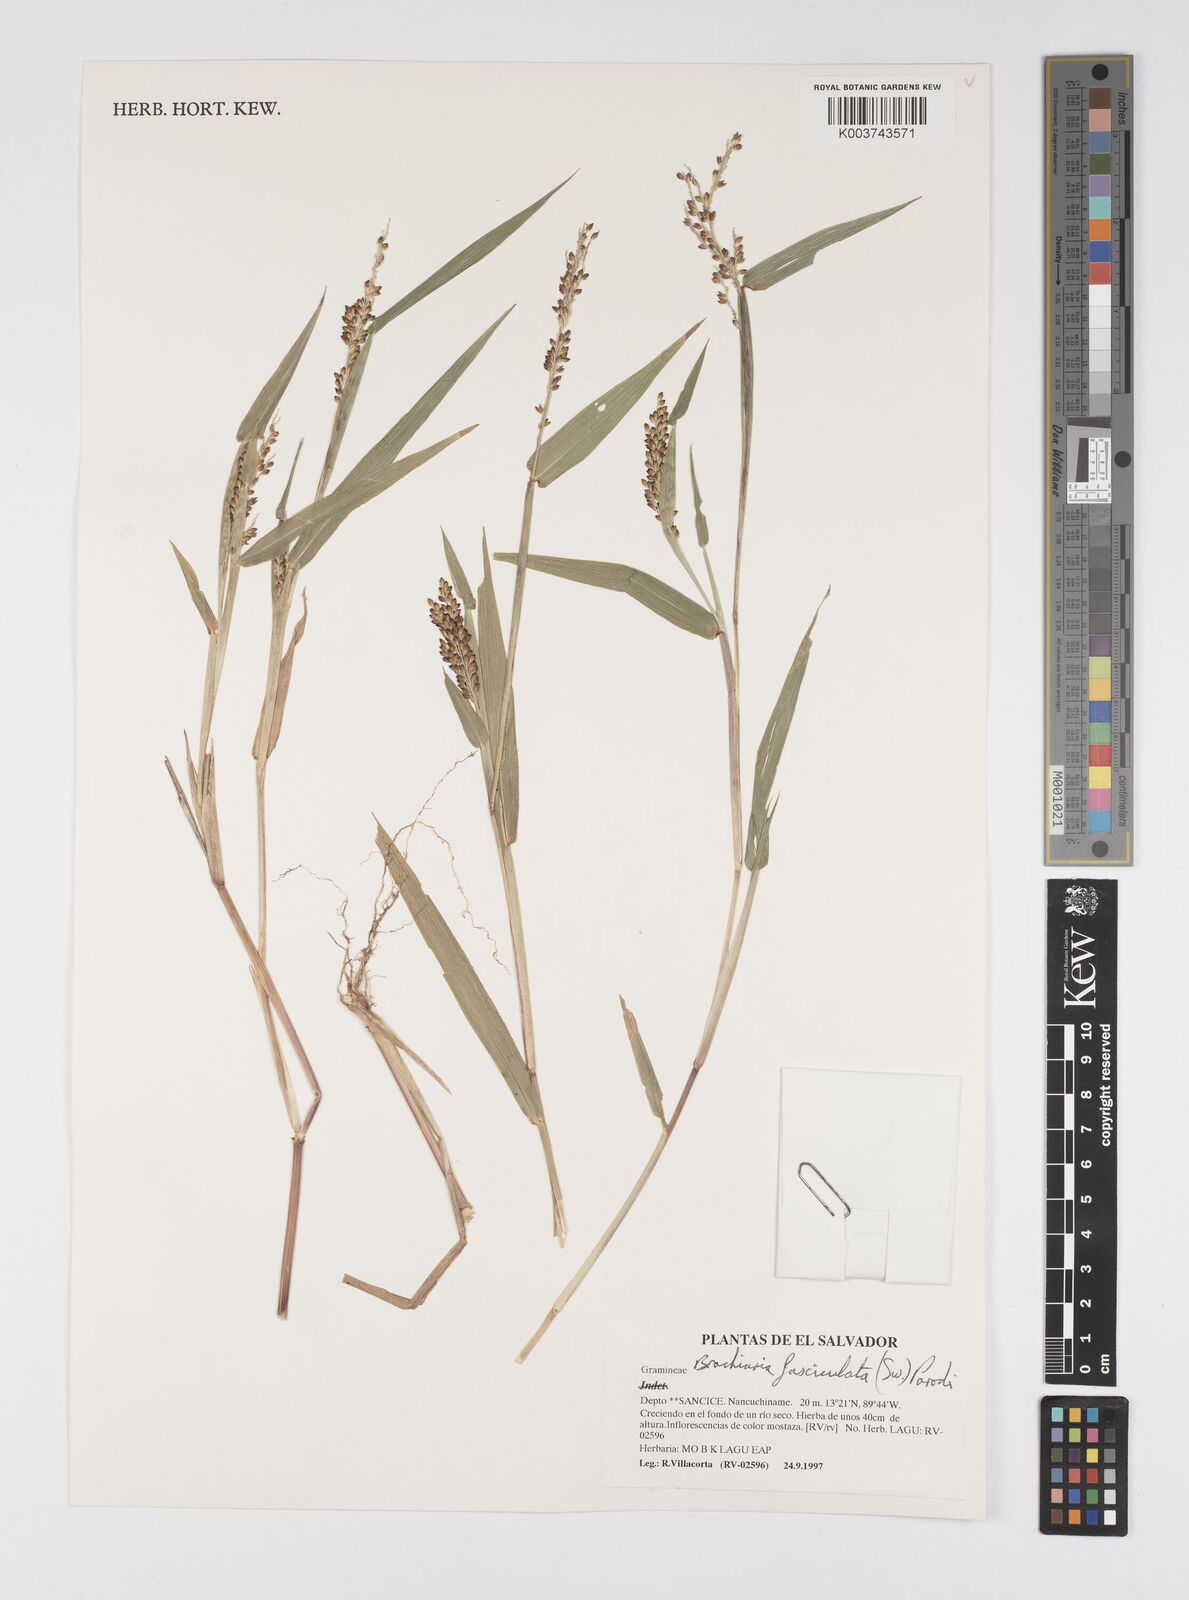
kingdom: Plantae
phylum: Tracheophyta
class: Liliopsida
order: Poales
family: Poaceae
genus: Urochloa
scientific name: Urochloa fusca
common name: Browntop signal grass
